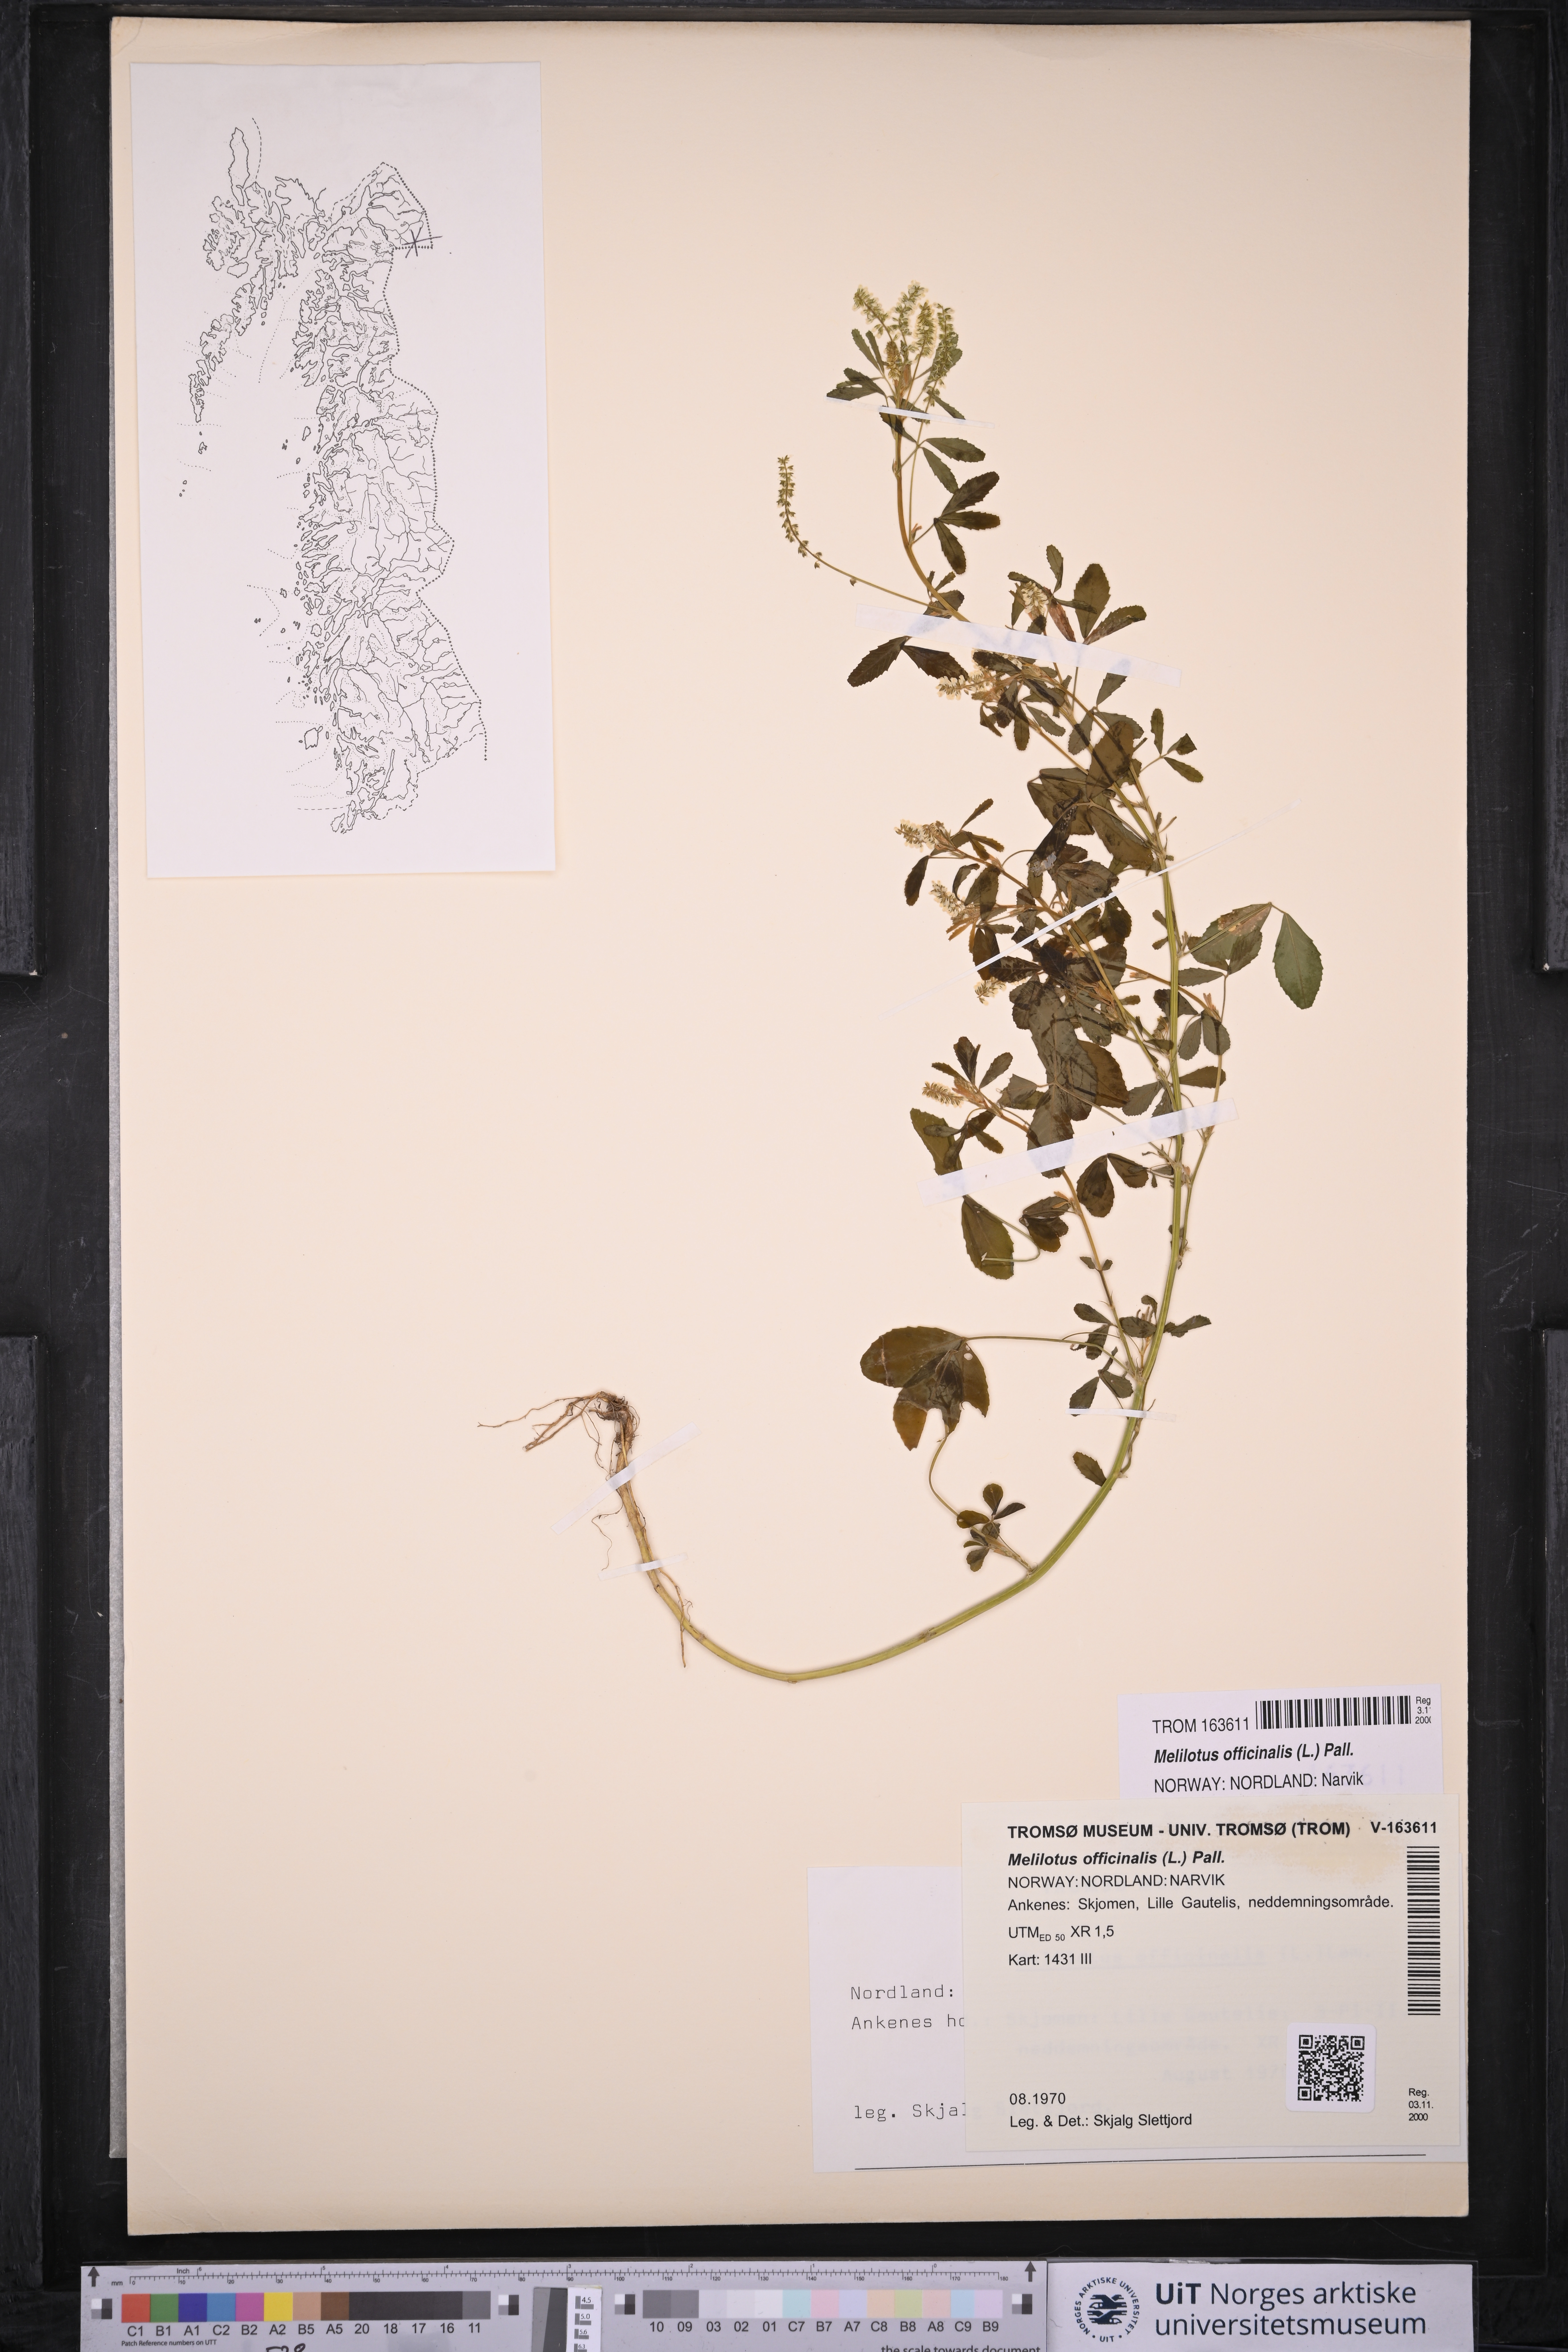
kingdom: Plantae
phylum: Tracheophyta
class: Magnoliopsida
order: Fabales
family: Fabaceae
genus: Melilotus
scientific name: Melilotus officinalis
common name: Sweetclover
